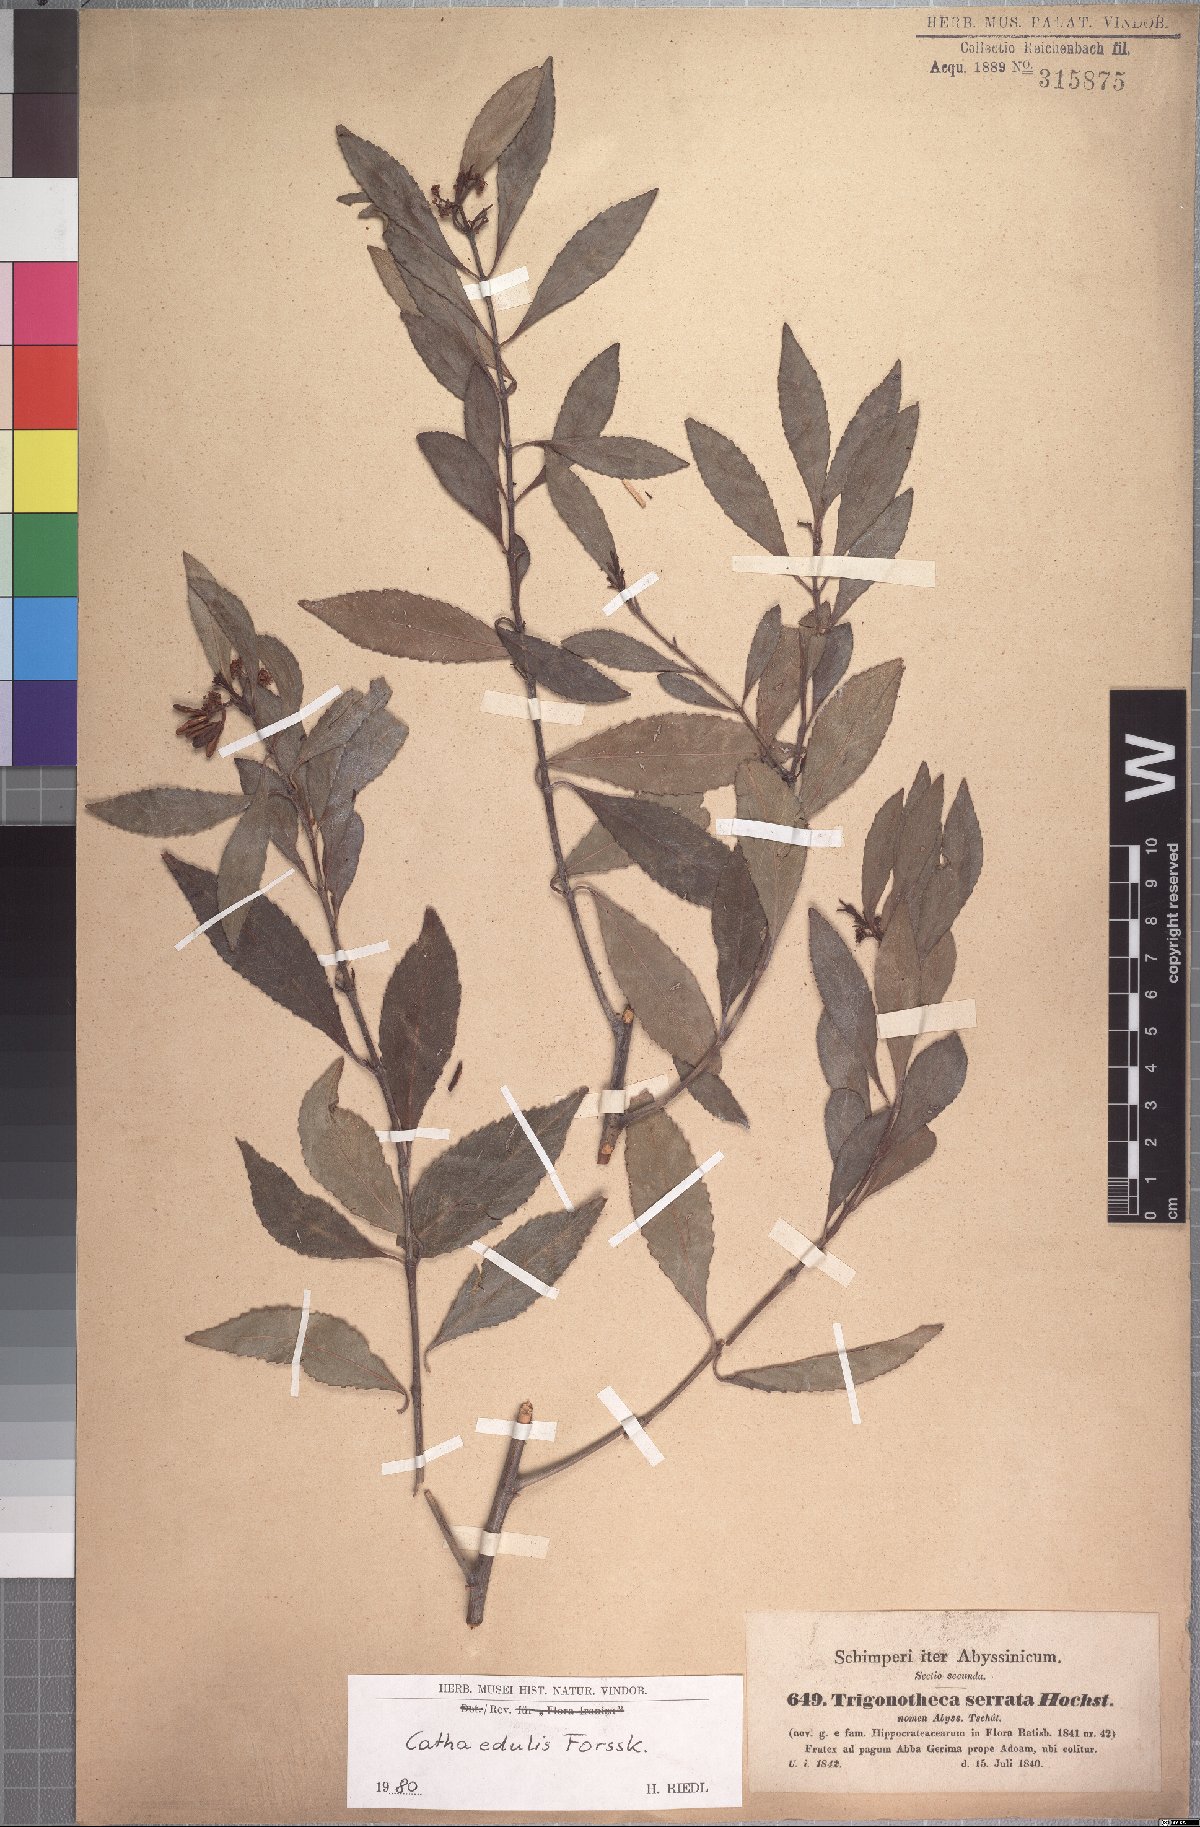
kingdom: Plantae
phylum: Tracheophyta
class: Magnoliopsida
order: Celastrales
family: Celastraceae
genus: Catha
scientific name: Catha edulis
